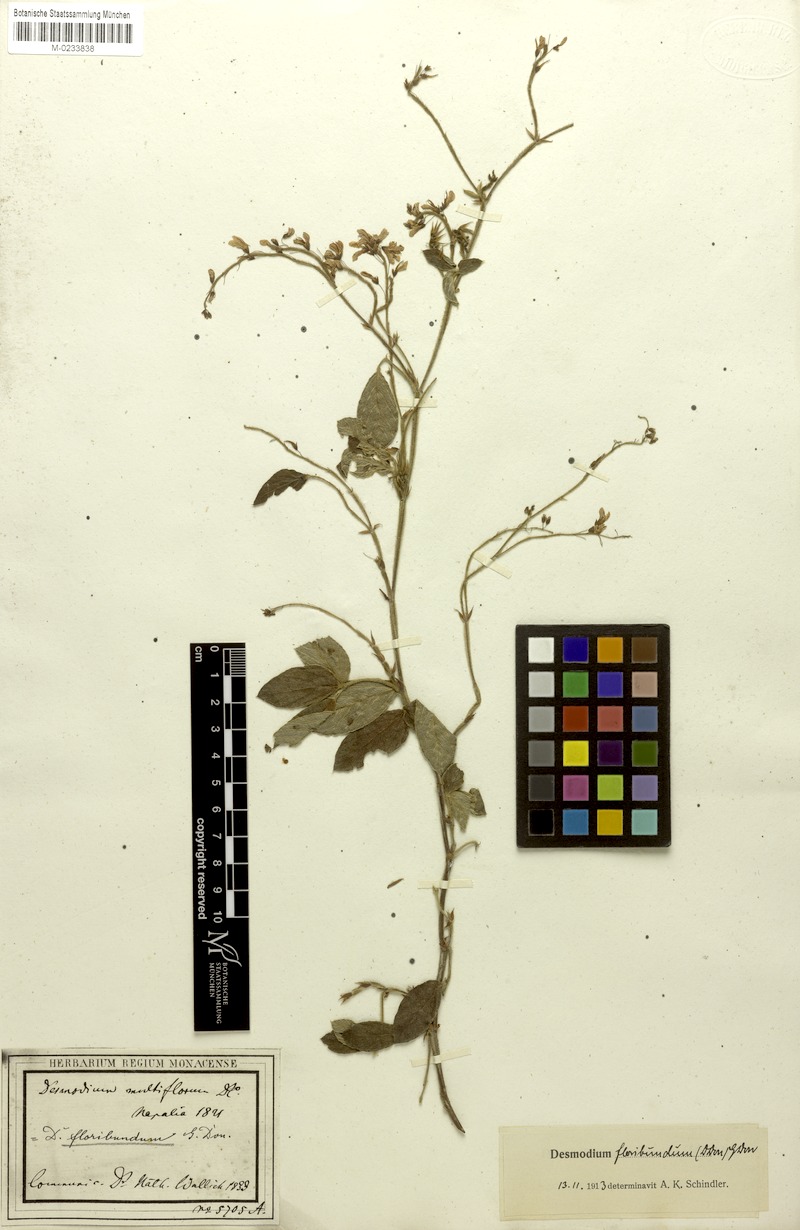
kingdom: Plantae
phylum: Tracheophyta
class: Magnoliopsida
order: Fabales
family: Fabaceae
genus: Ototropis
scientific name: Ototropis multiflora
